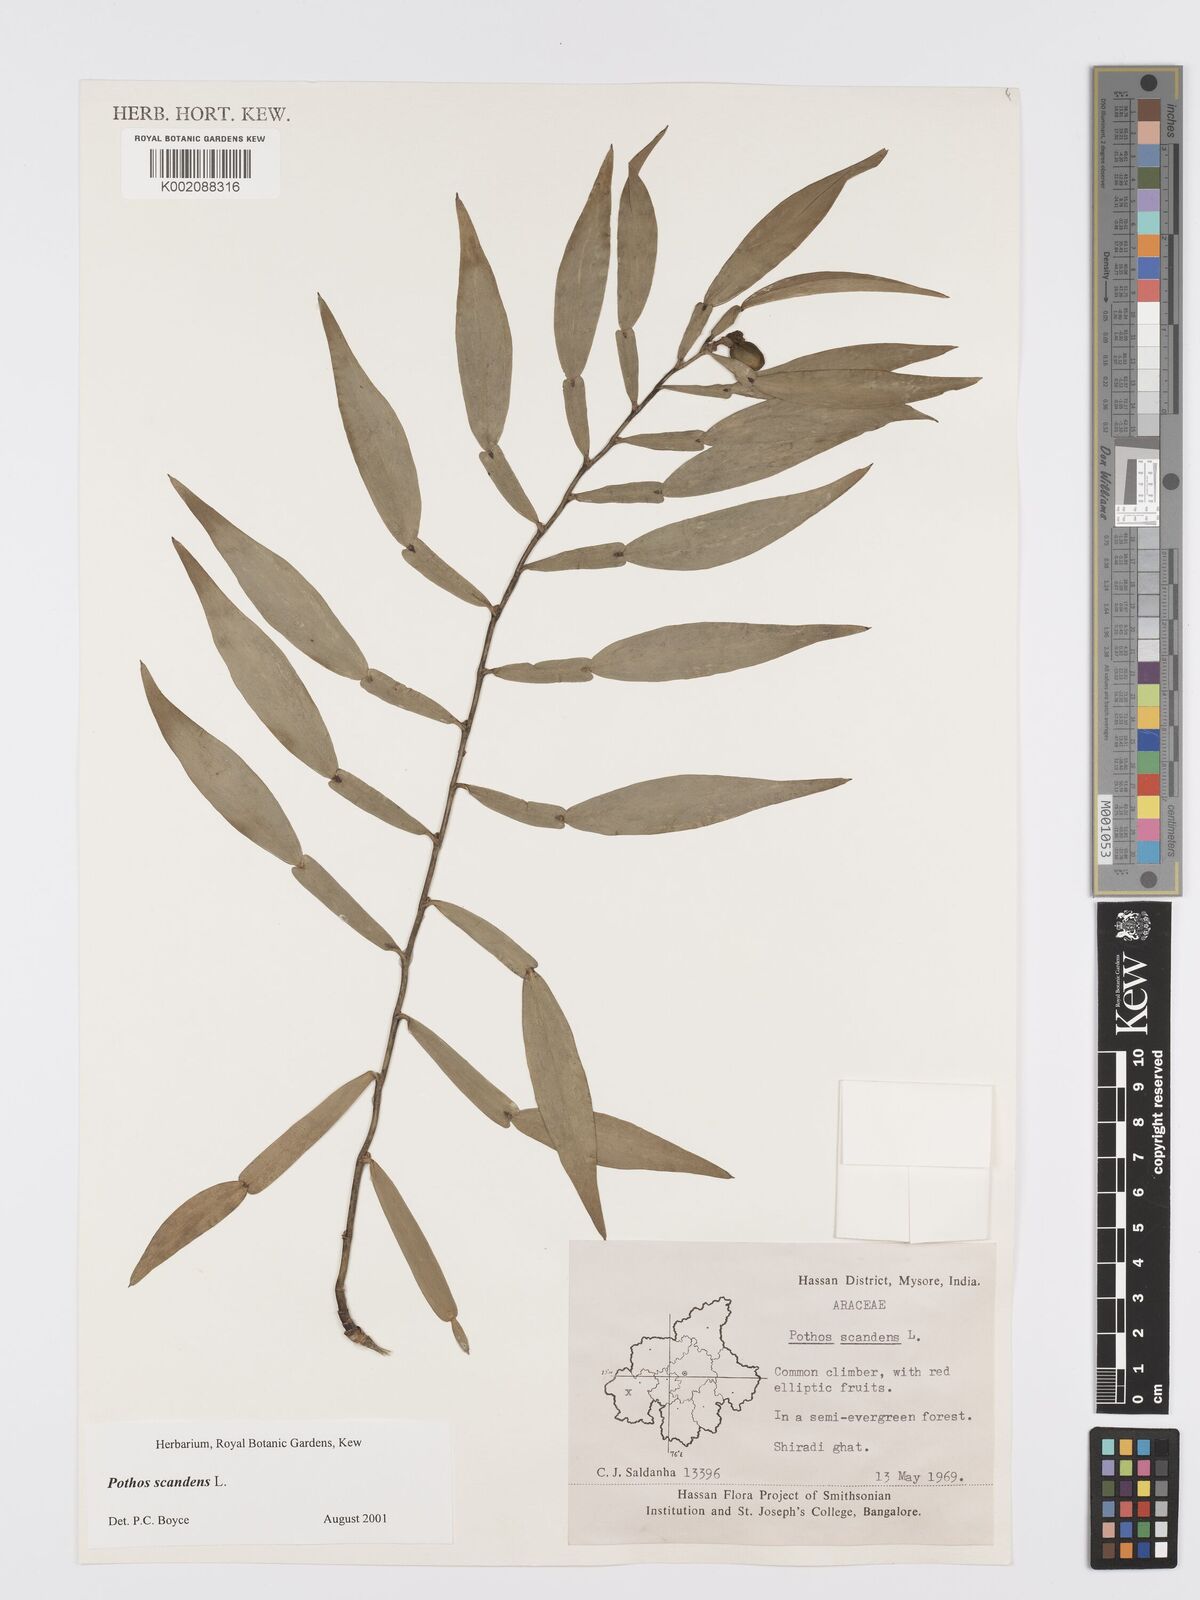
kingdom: Plantae
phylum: Tracheophyta
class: Liliopsida
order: Alismatales
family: Araceae
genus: Pothos
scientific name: Pothos scandens
